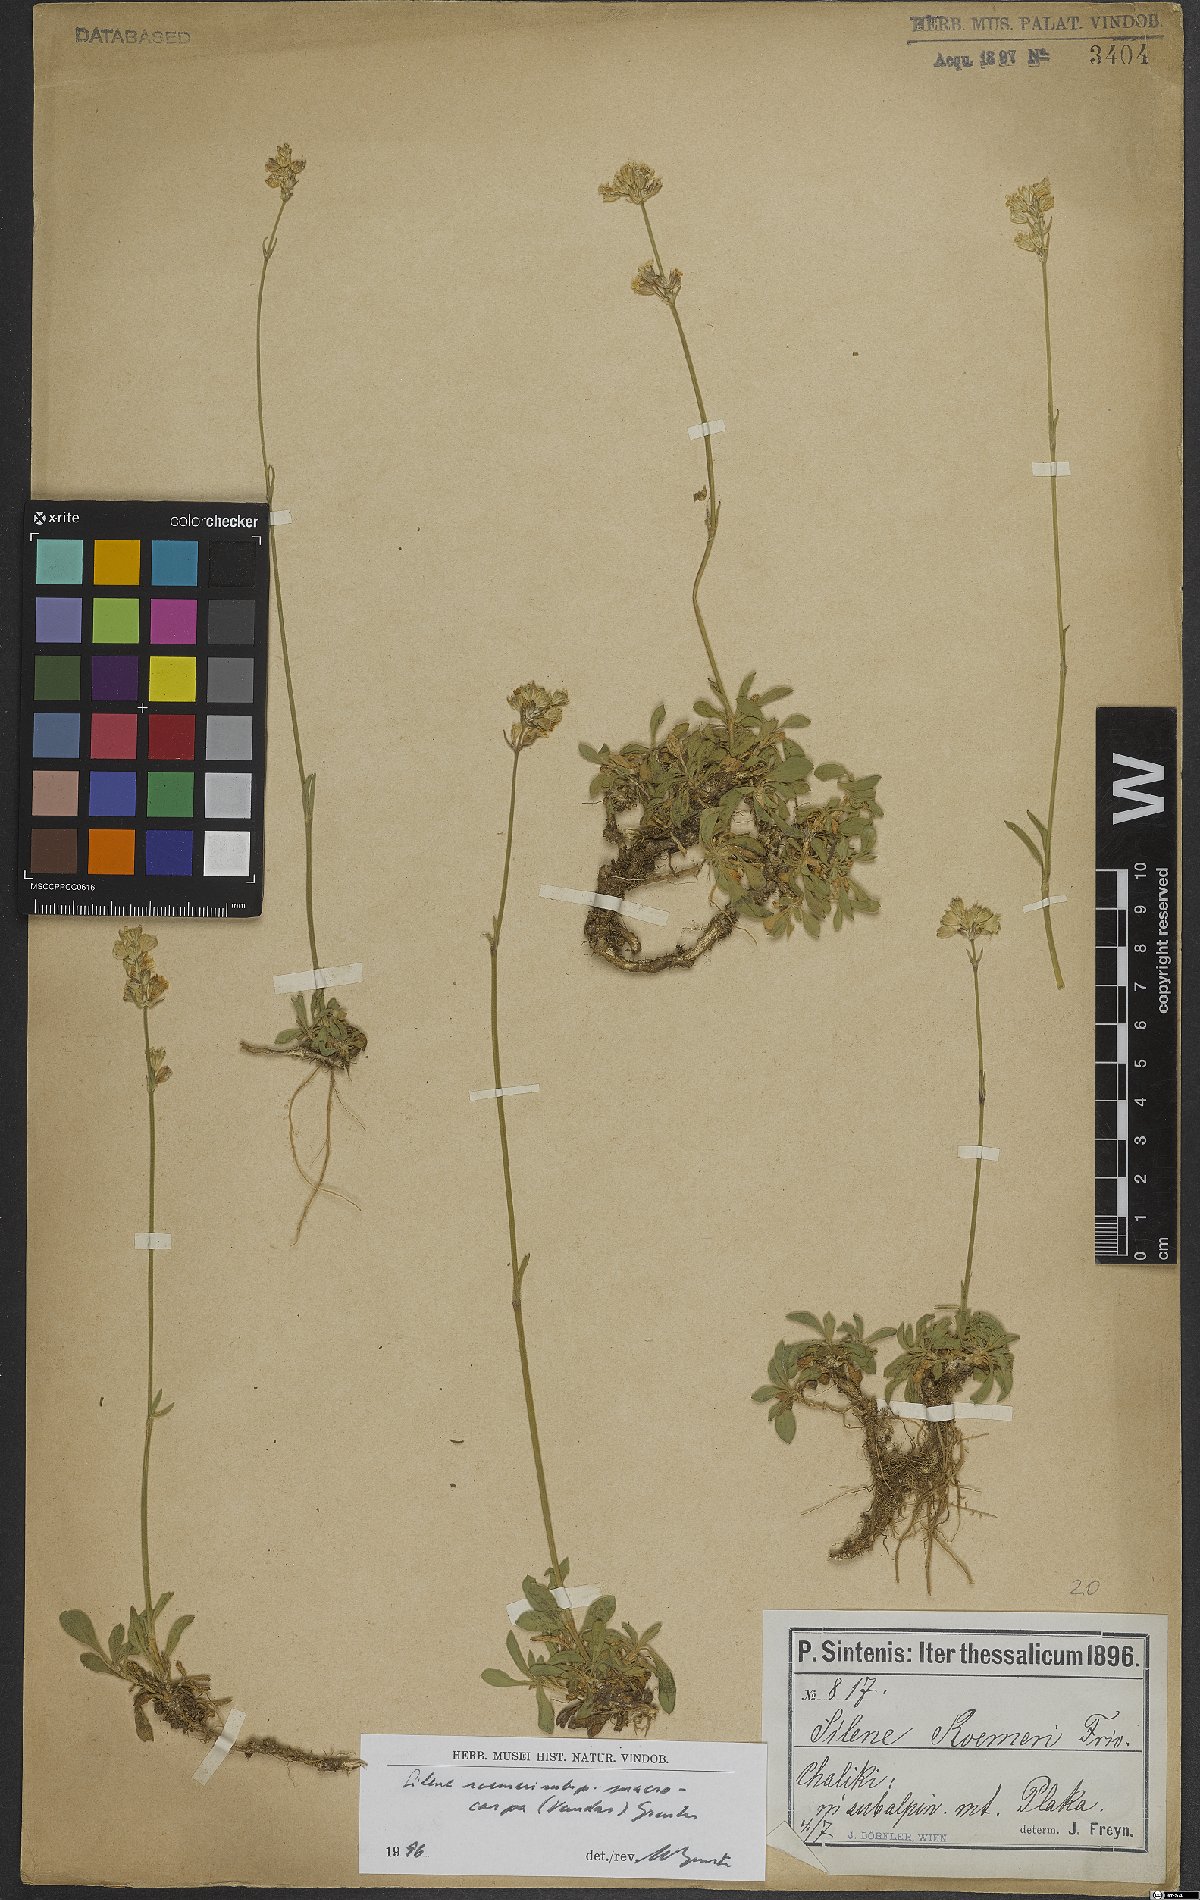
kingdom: Plantae
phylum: Tracheophyta
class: Magnoliopsida
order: Caryophyllales
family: Caryophyllaceae
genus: Silene
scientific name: Silene roemeri
